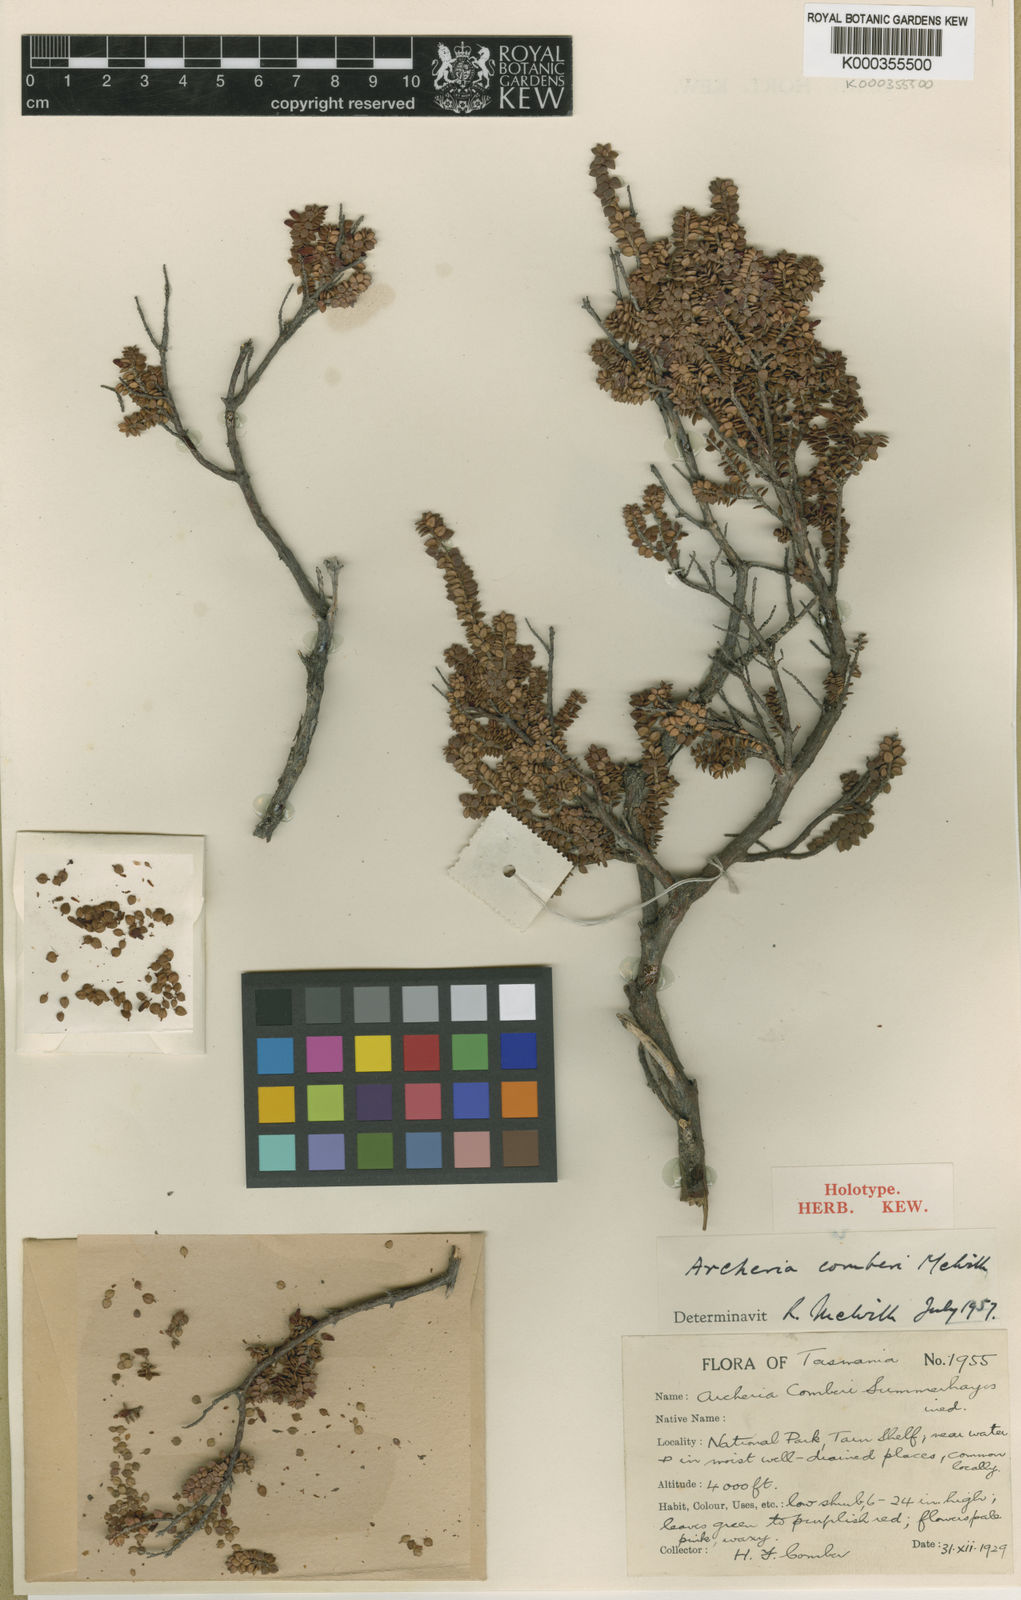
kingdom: Plantae
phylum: Tracheophyta
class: Magnoliopsida
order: Ericales
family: Ericaceae
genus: Archeria
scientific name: Archeria
